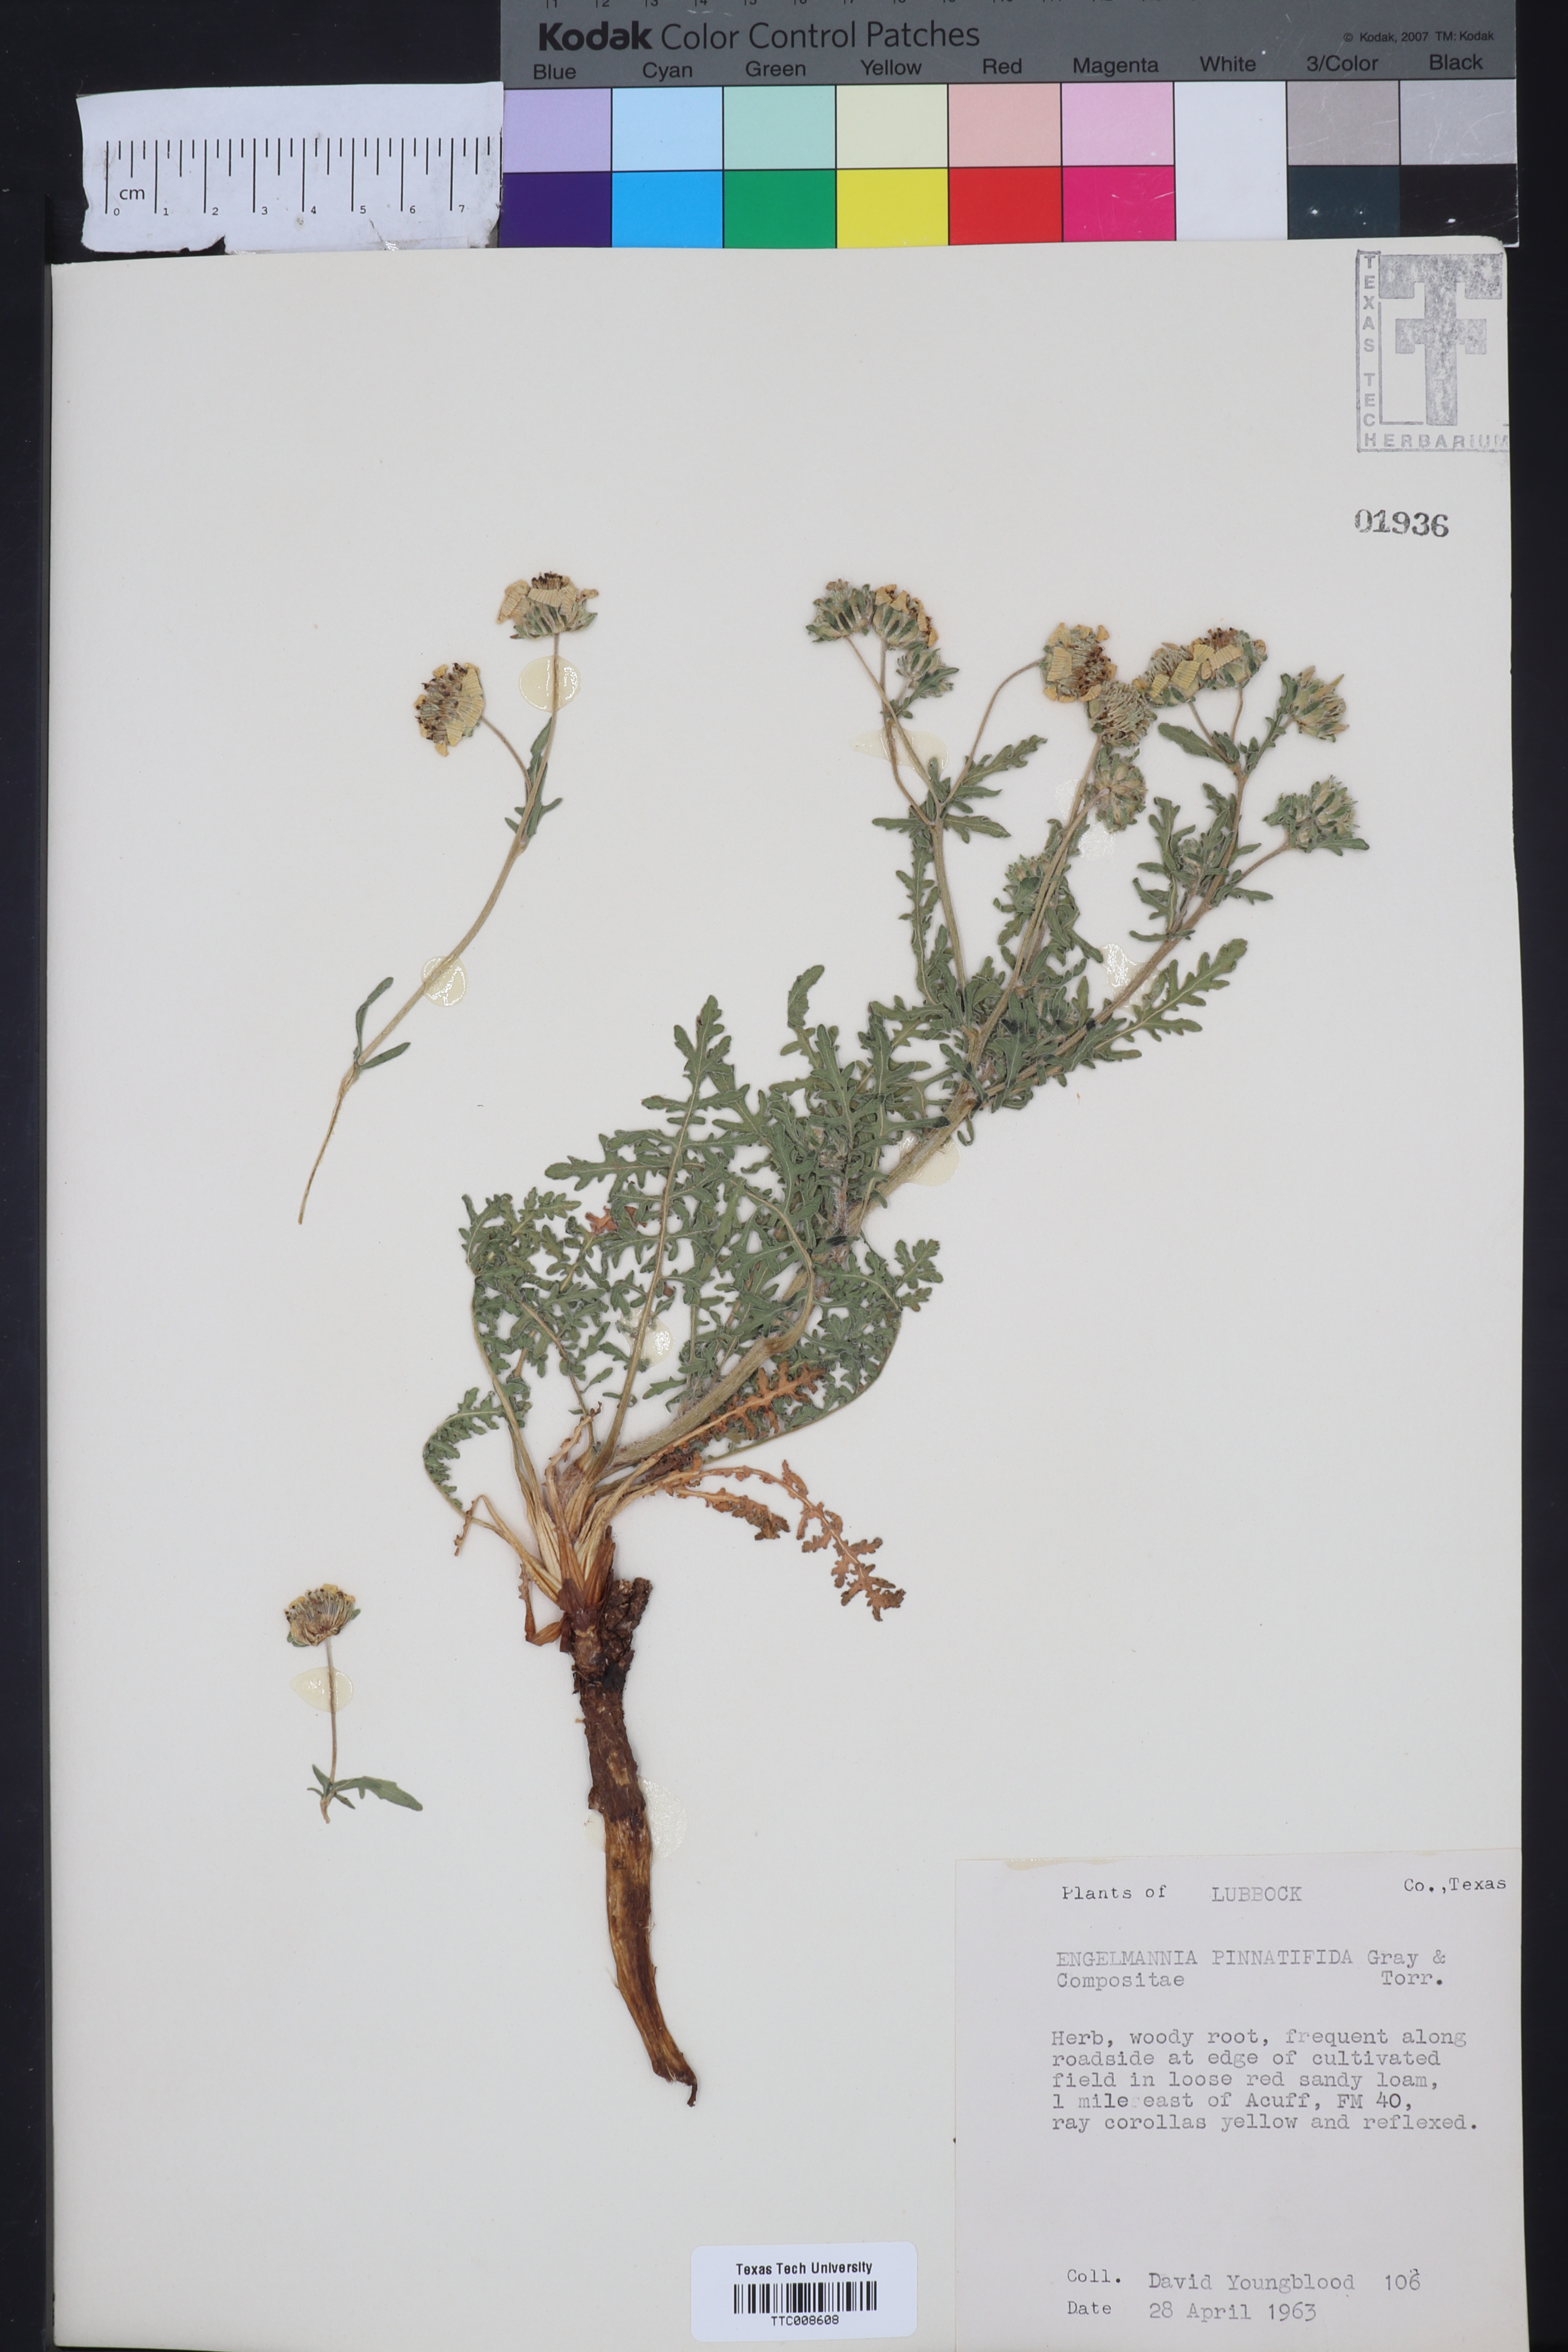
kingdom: Plantae
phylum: Tracheophyta
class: Magnoliopsida
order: Asterales
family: Asteraceae
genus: Engelmannia
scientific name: Engelmannia peristenia
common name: Engelmann's daisy
